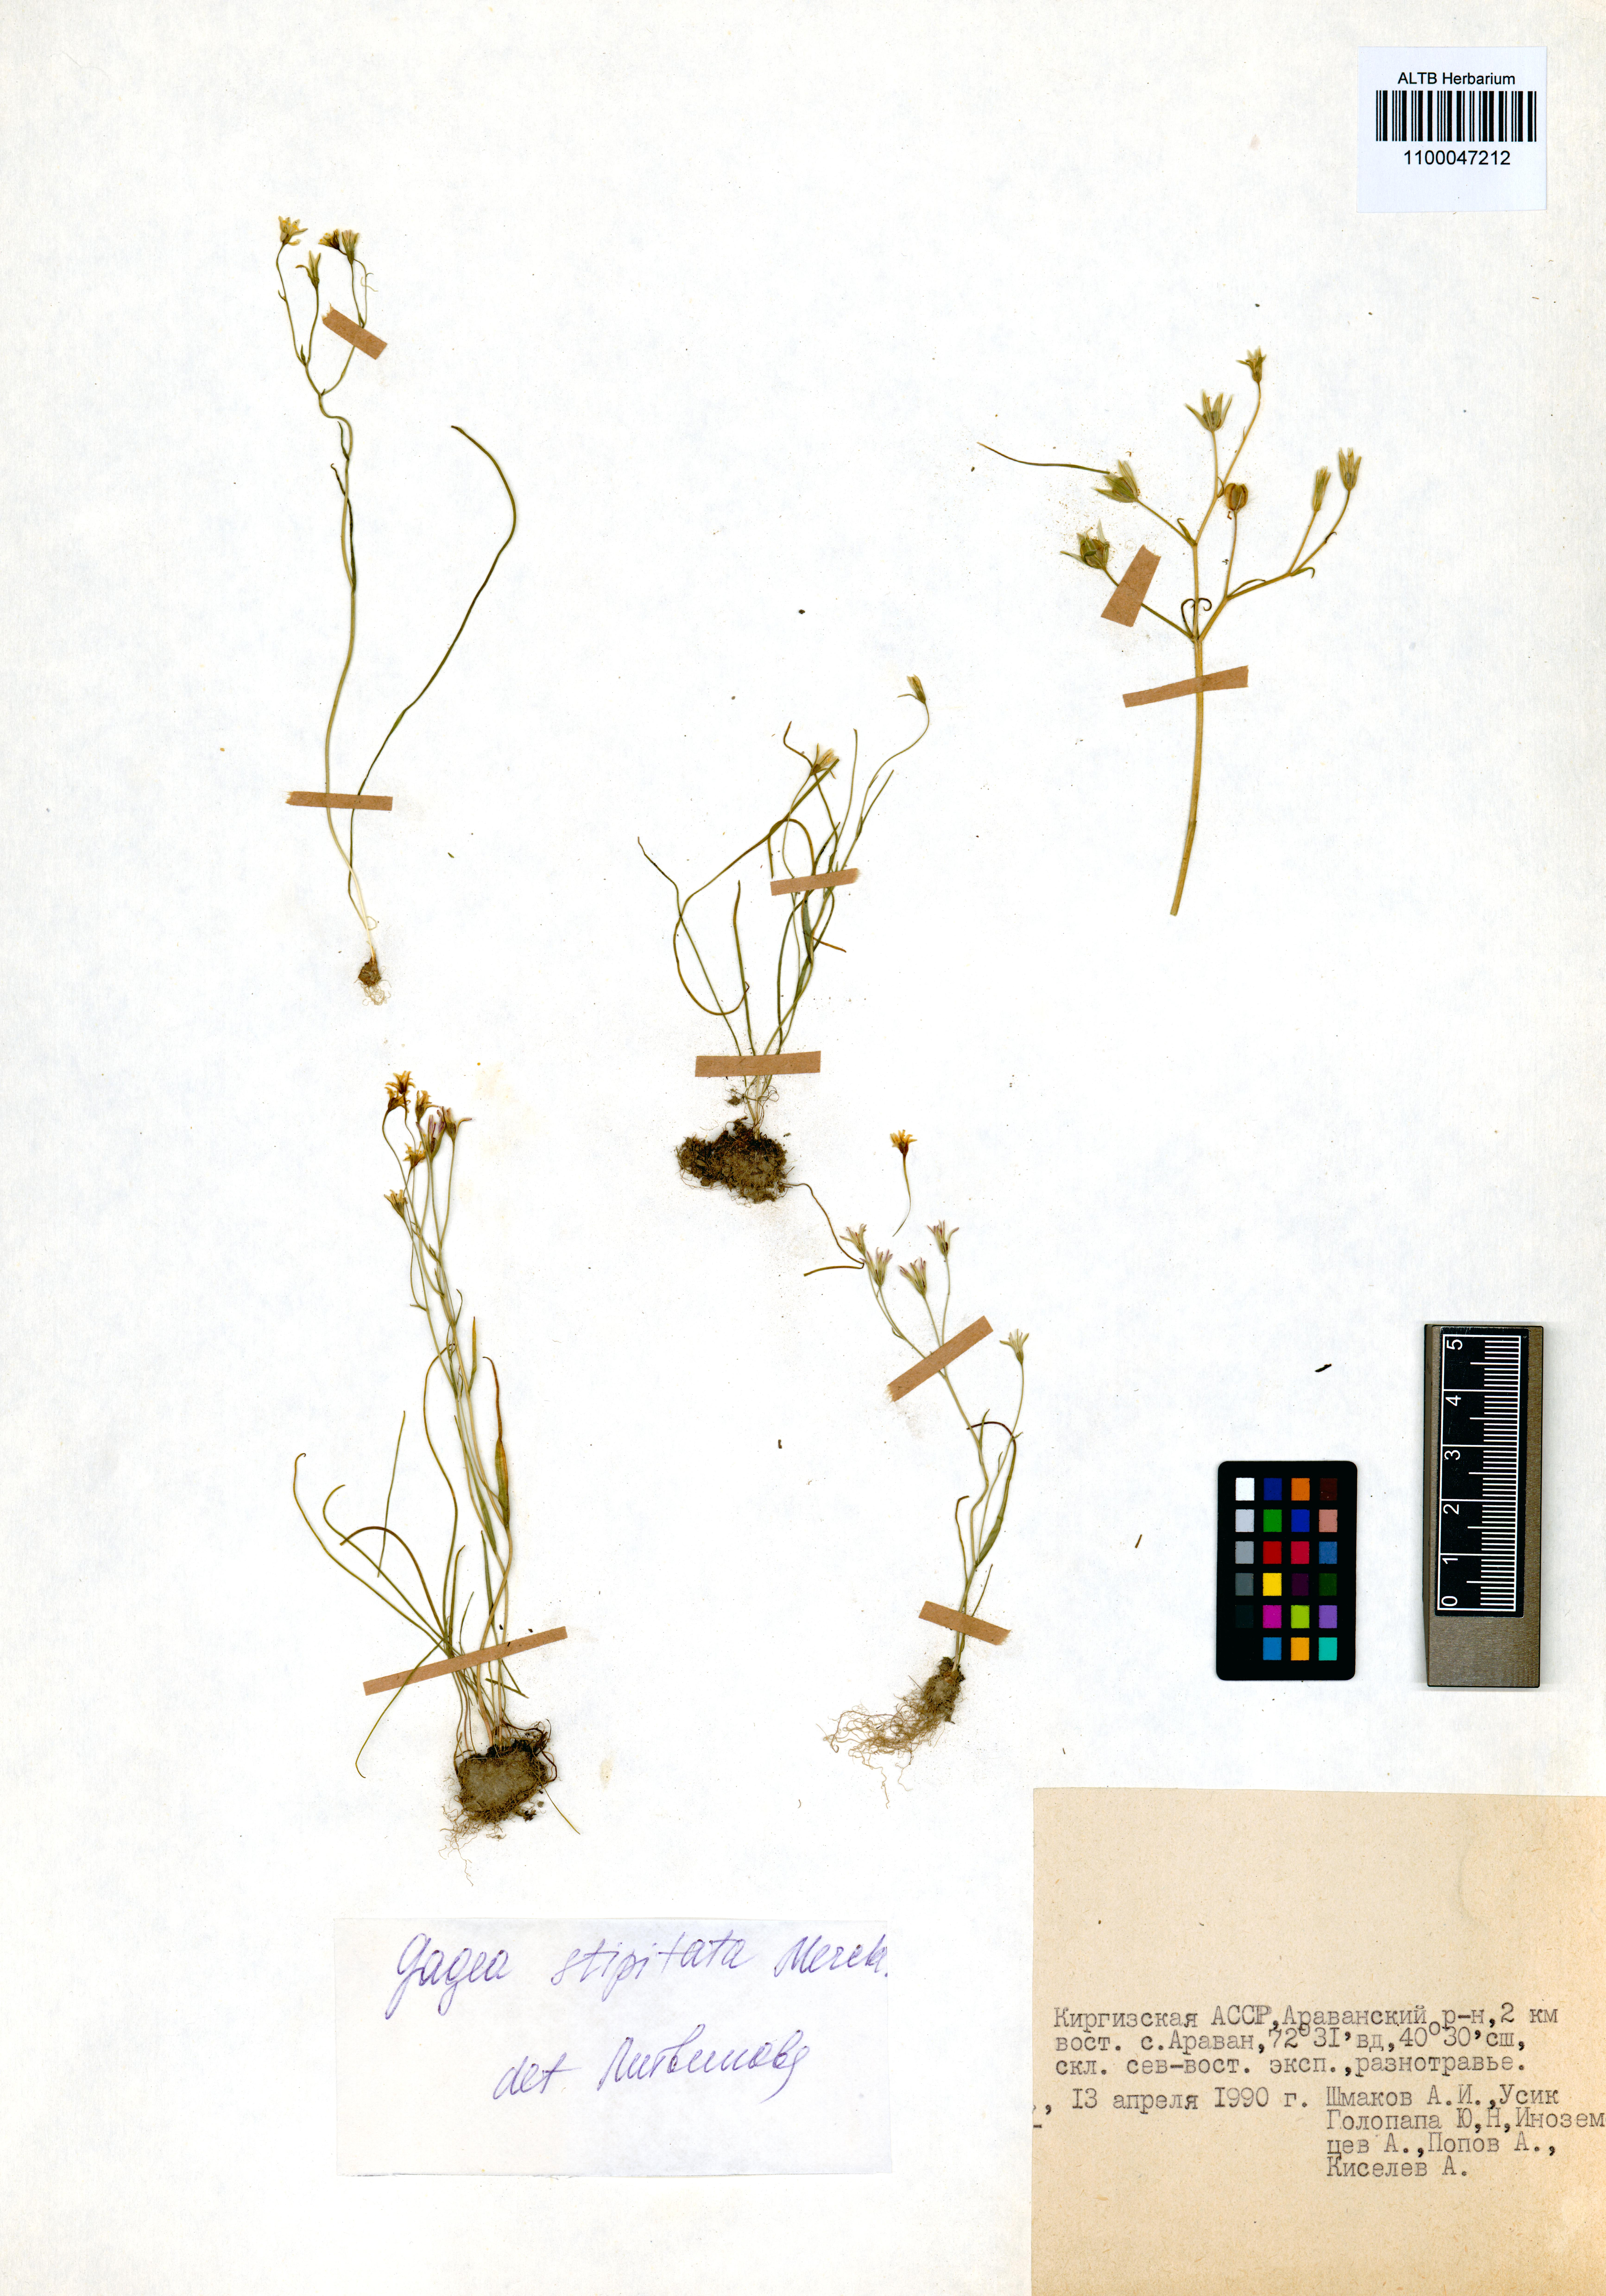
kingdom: Plantae
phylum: Tracheophyta
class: Liliopsida
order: Liliales
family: Liliaceae
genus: Gagea
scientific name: Gagea kunawurensis
